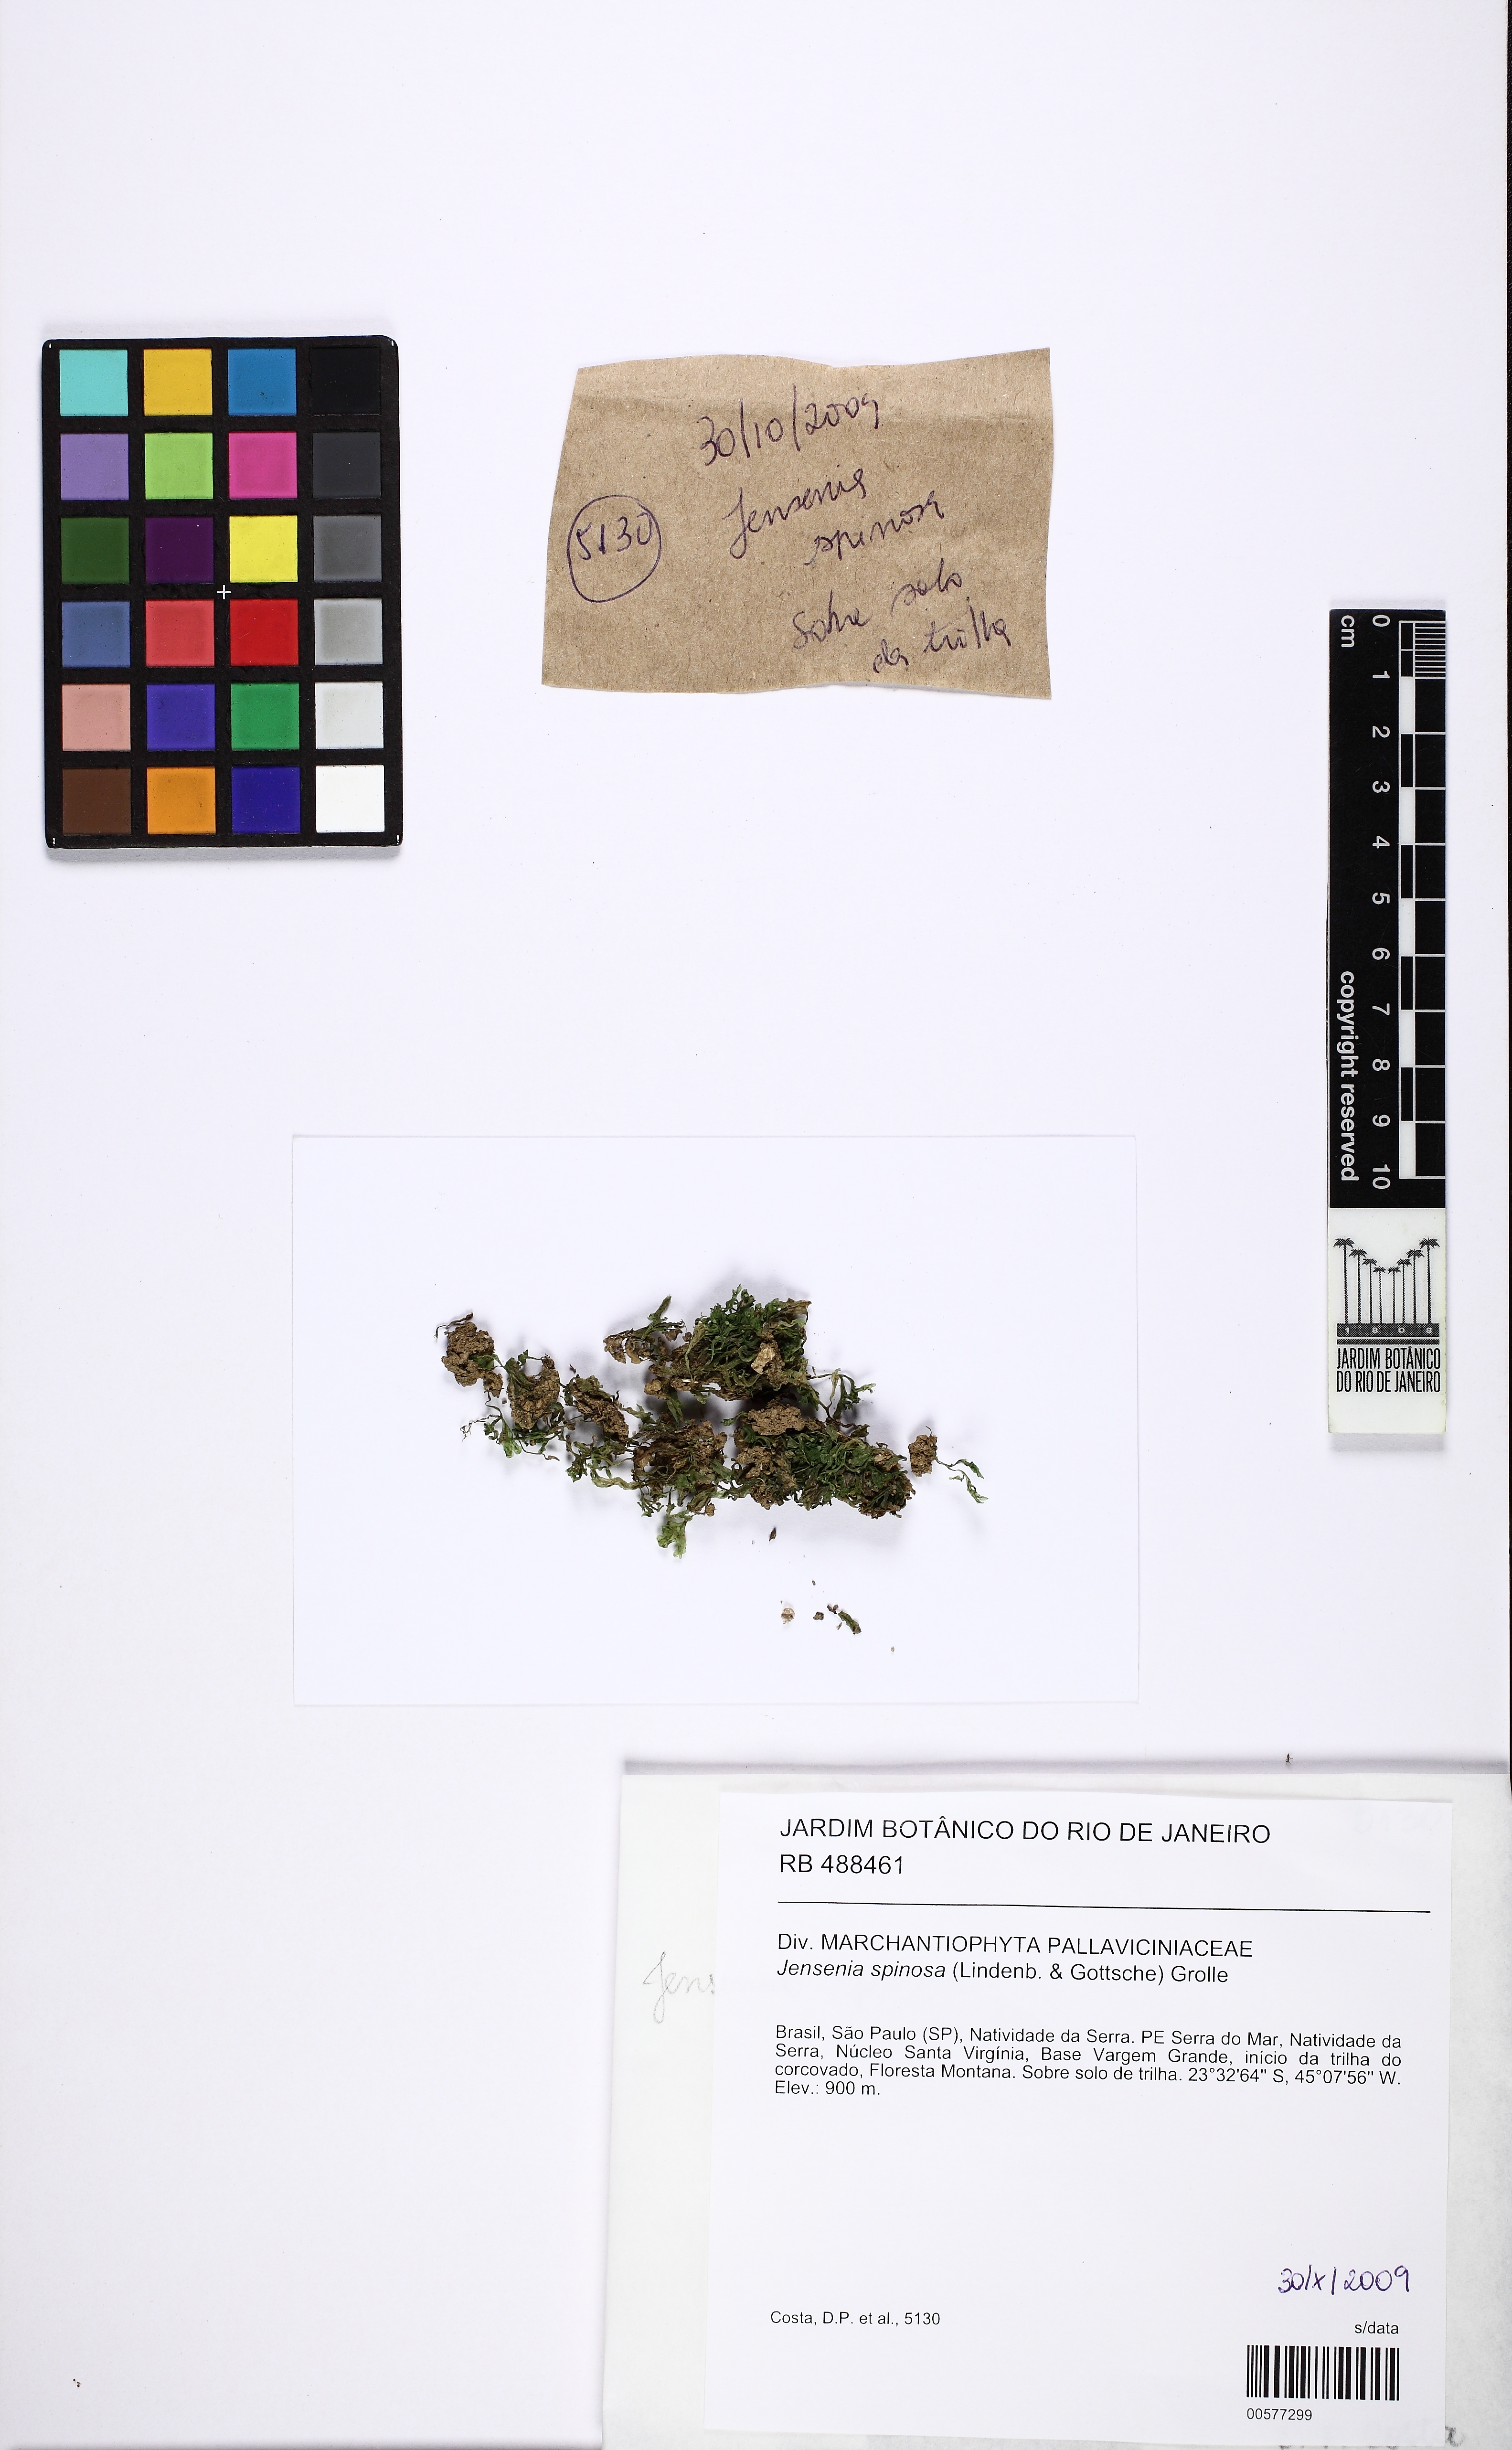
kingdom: Plantae
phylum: Marchantiophyta
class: Jungermanniopsida
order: Pallaviciniales
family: Pallaviciniaceae
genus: Jensenia
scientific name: Jensenia spinosa
